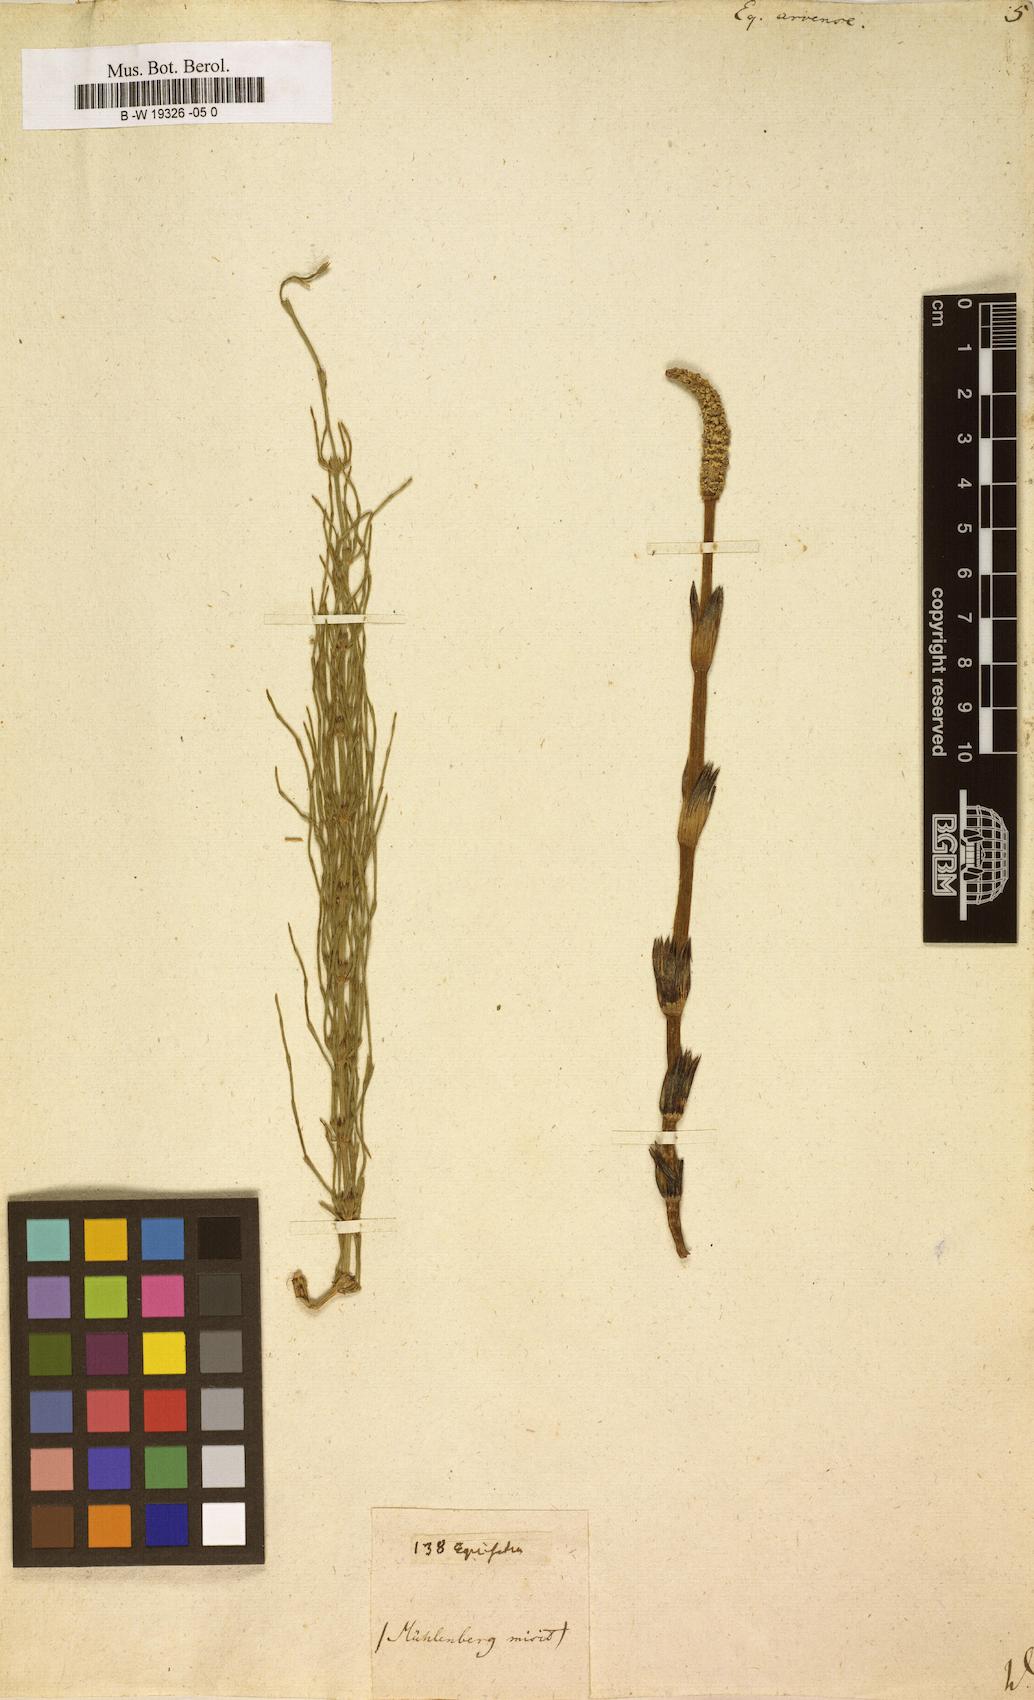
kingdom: Plantae
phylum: Tracheophyta
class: Polypodiopsida
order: Equisetales
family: Equisetaceae
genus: Equisetum
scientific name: Equisetum arvense
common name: Field horsetail
